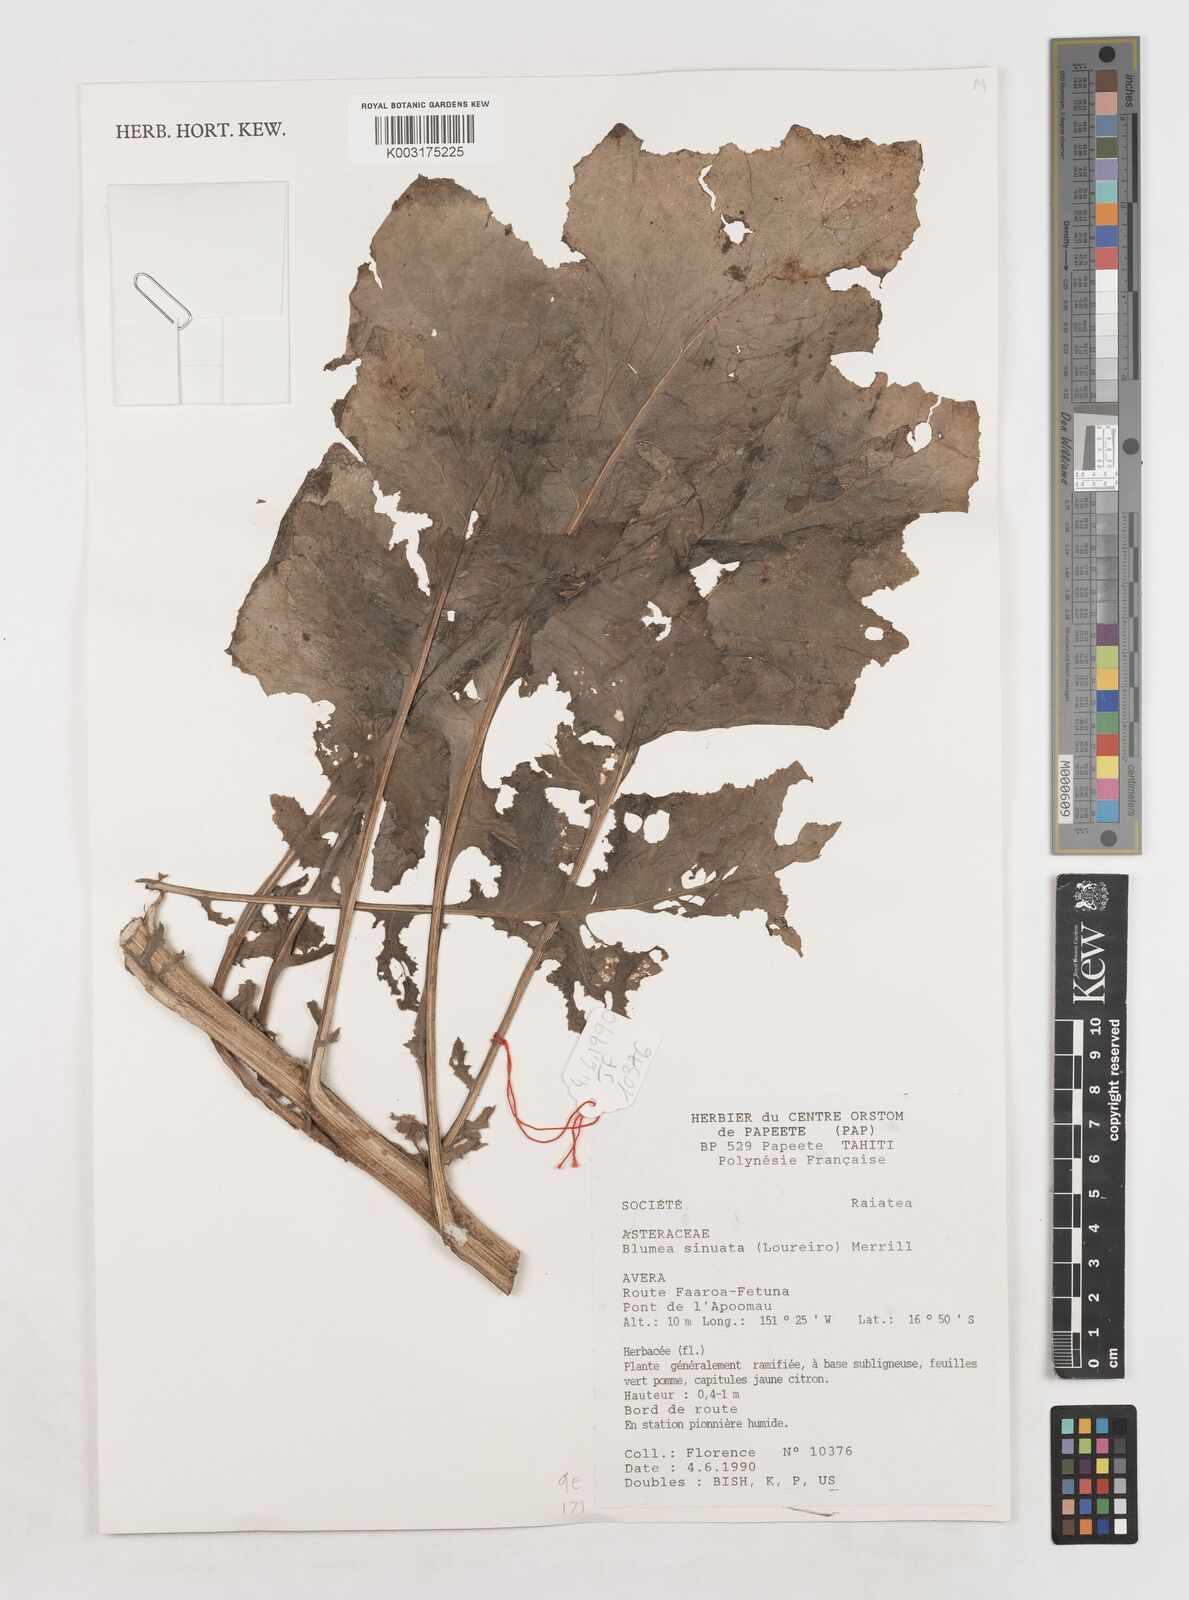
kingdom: Plantae
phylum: Tracheophyta
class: Magnoliopsida
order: Asterales
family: Asteraceae
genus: Blumea
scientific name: Blumea sinuata
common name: Cutleaf false oxtongue
